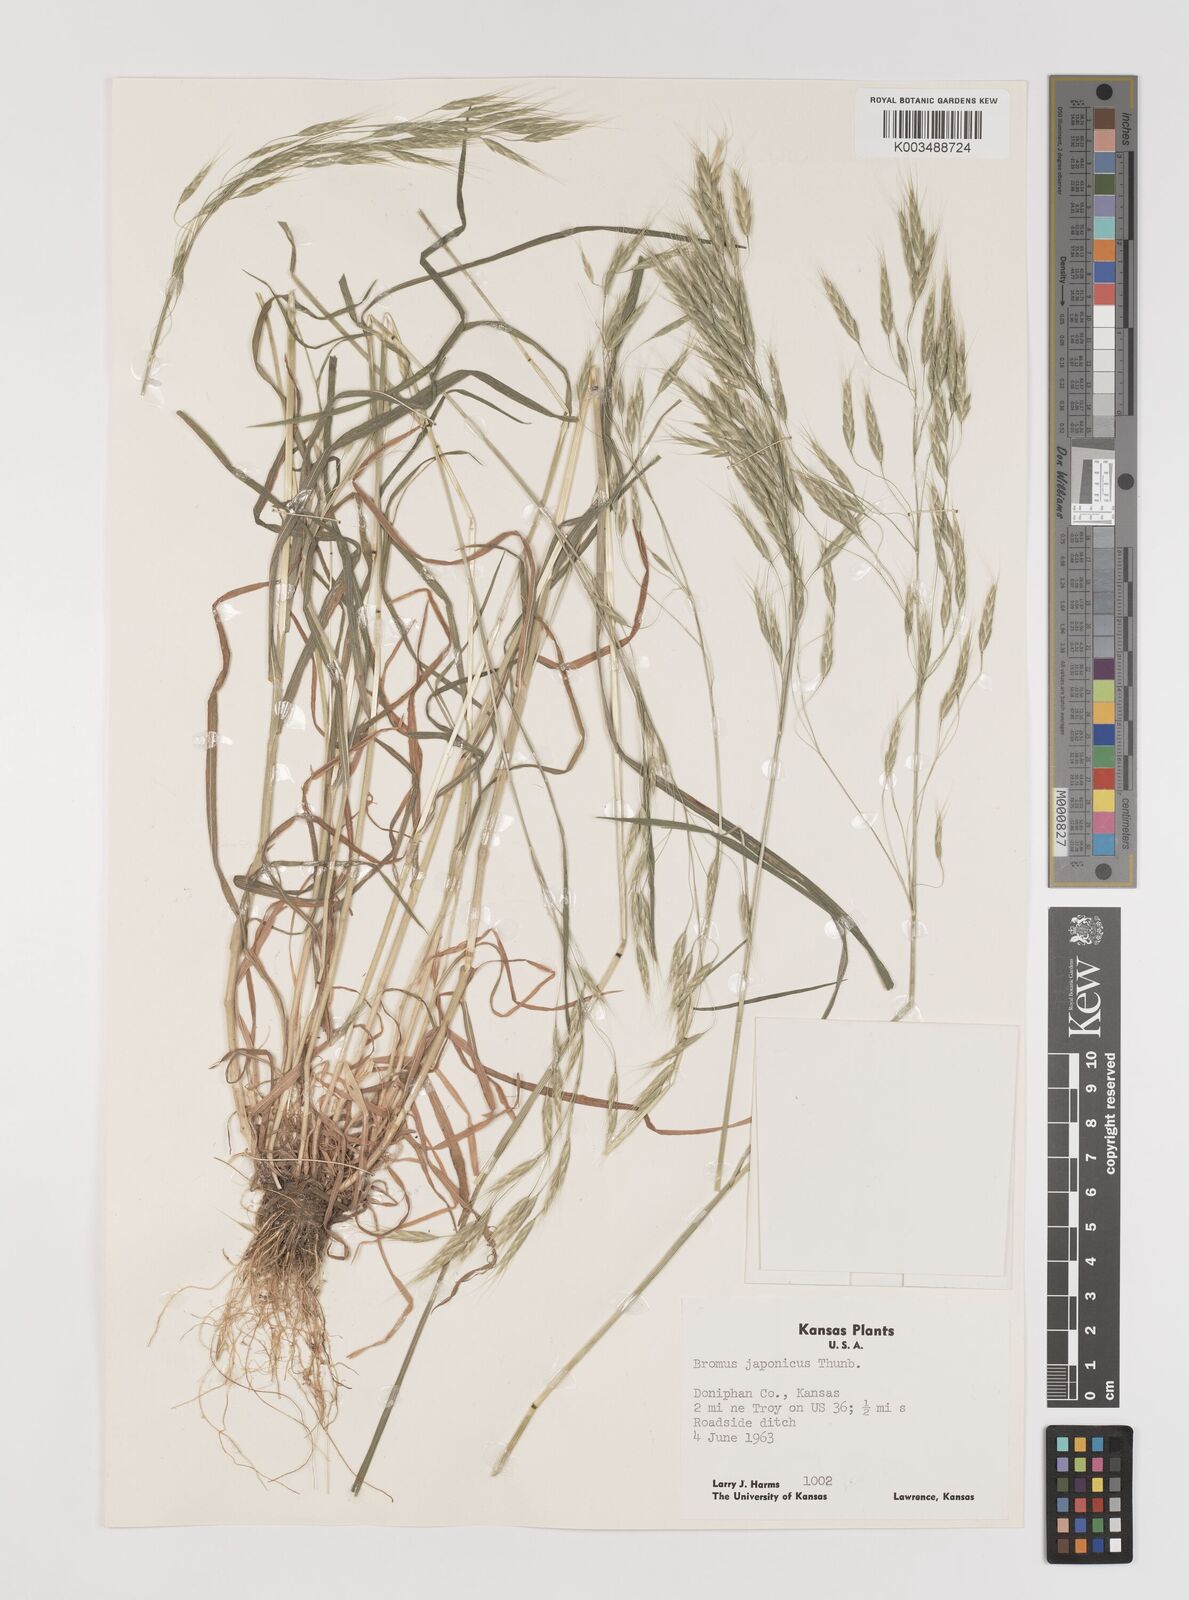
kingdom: Plantae
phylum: Tracheophyta
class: Liliopsida
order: Poales
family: Poaceae
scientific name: Poaceae
